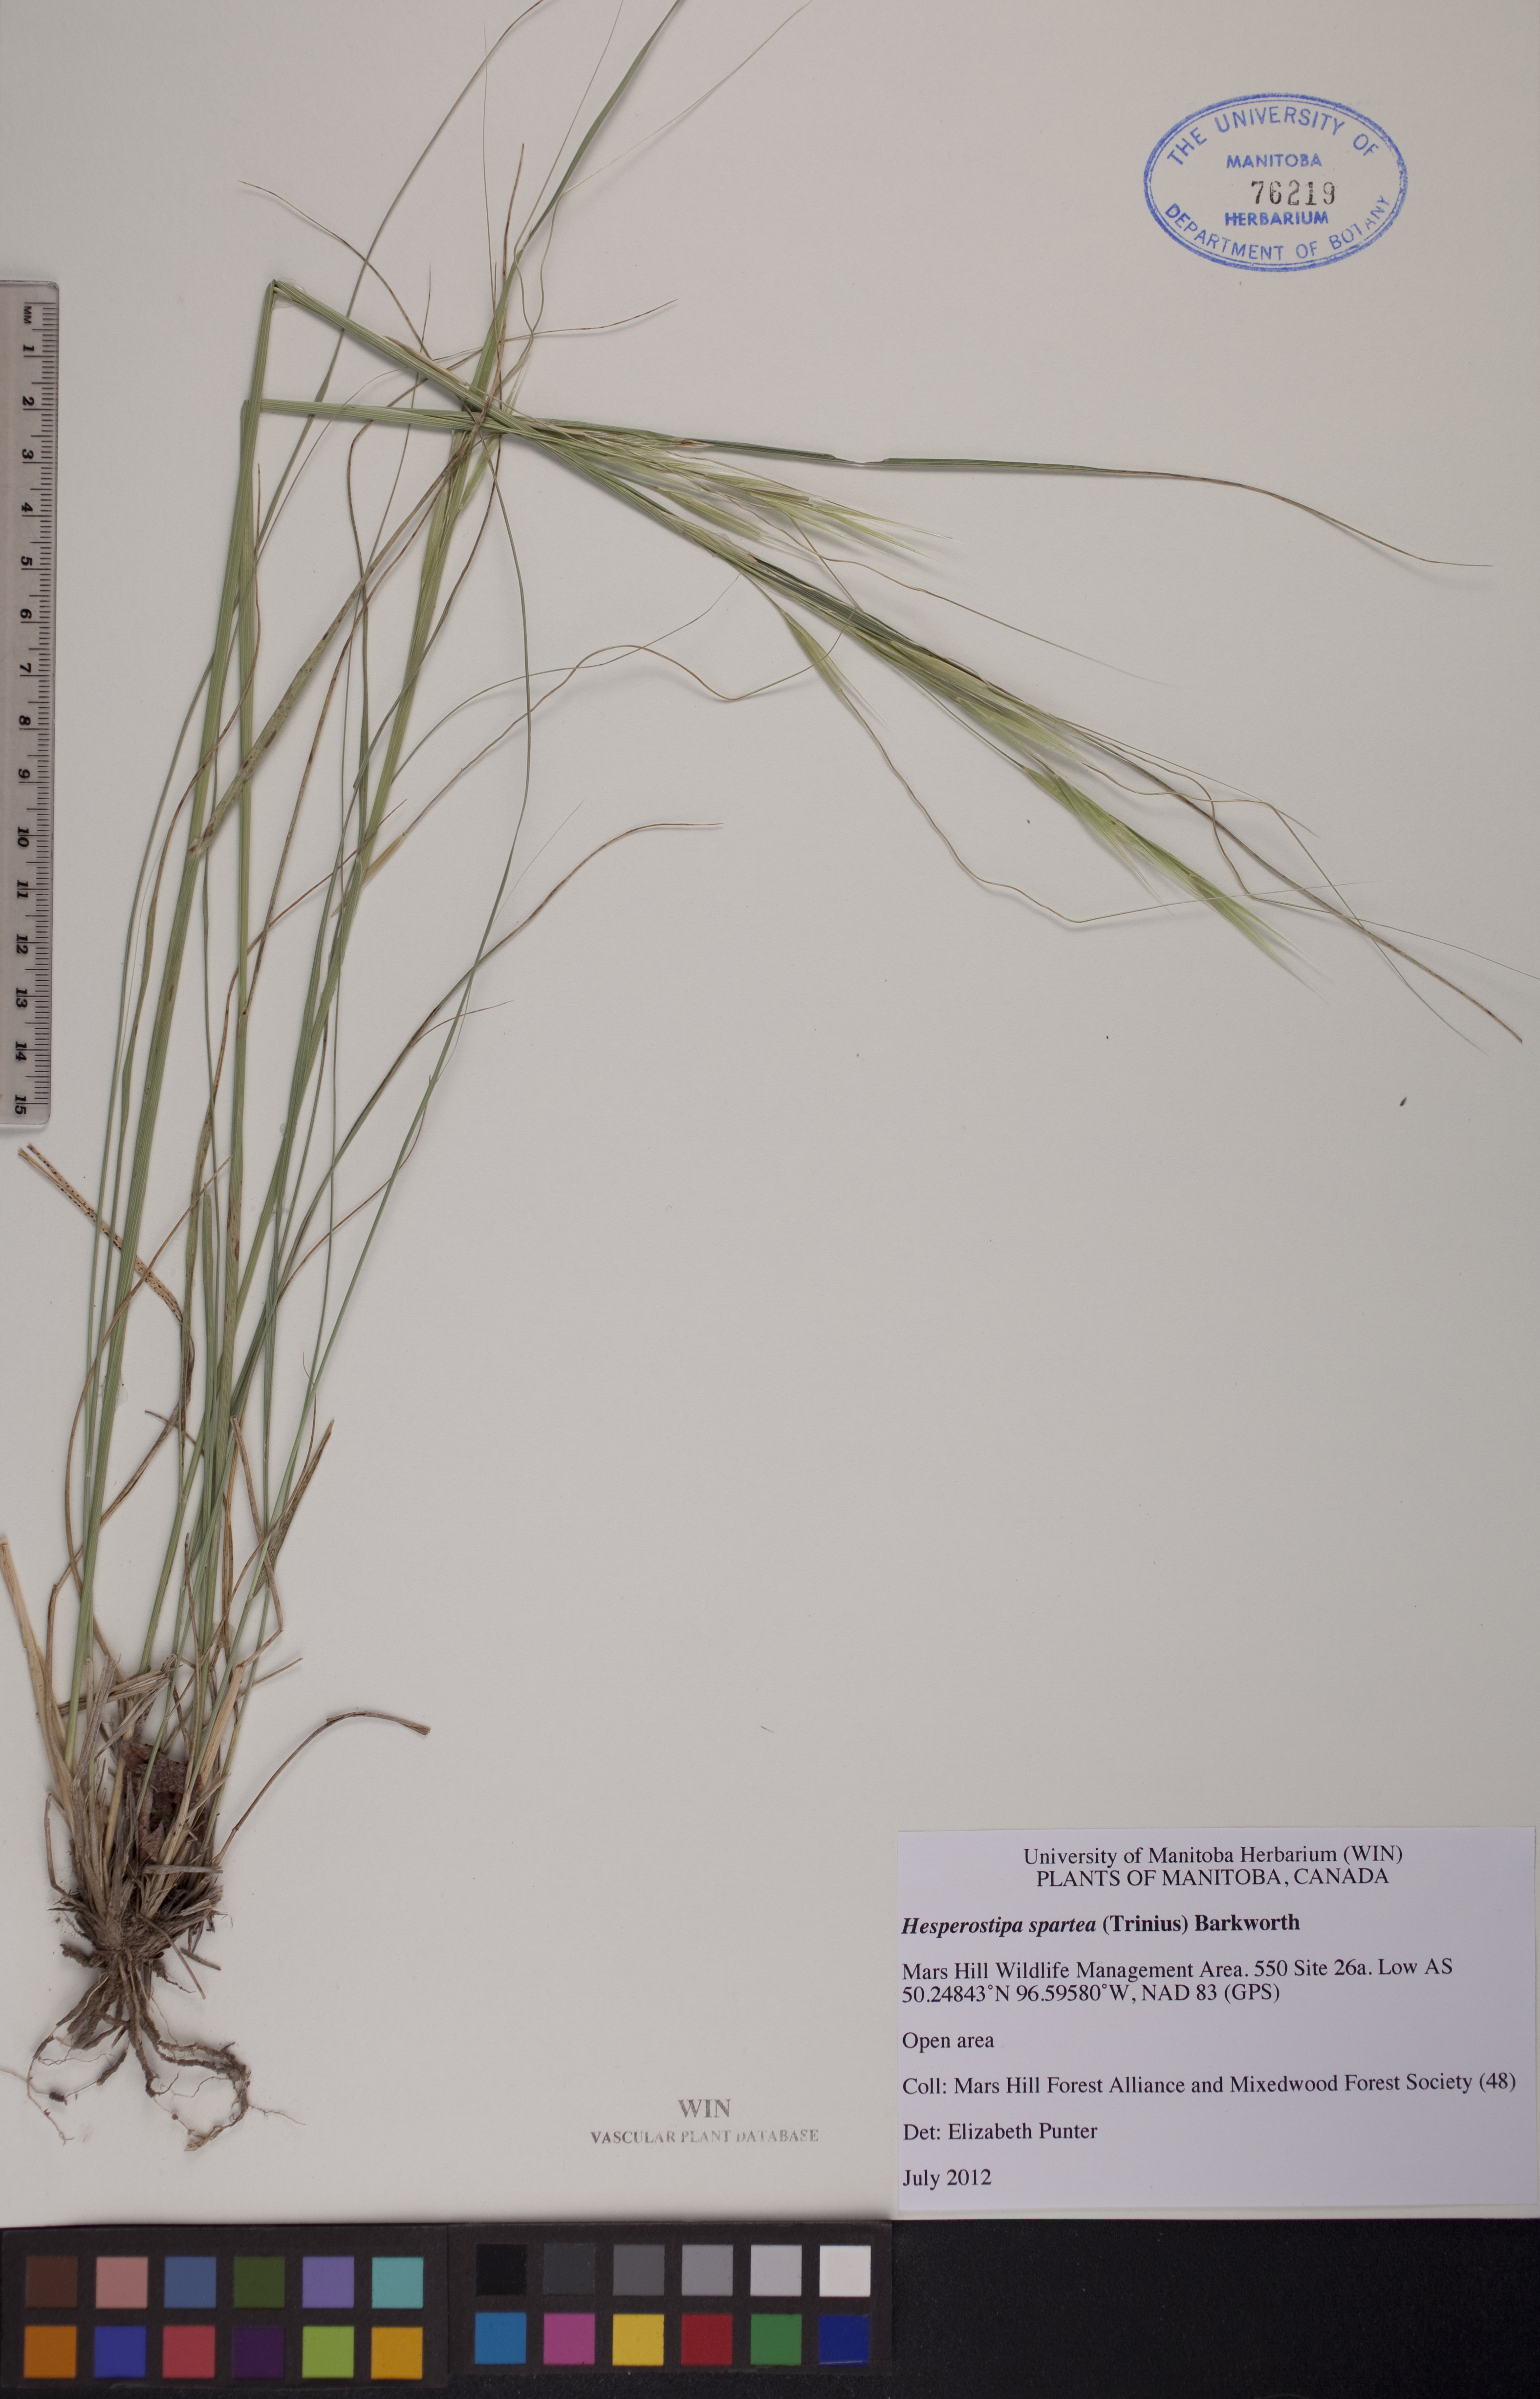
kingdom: Plantae
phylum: Tracheophyta
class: Liliopsida
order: Poales
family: Poaceae
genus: Hesperostipa
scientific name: Hesperostipa spartea
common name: Porcupine grass
